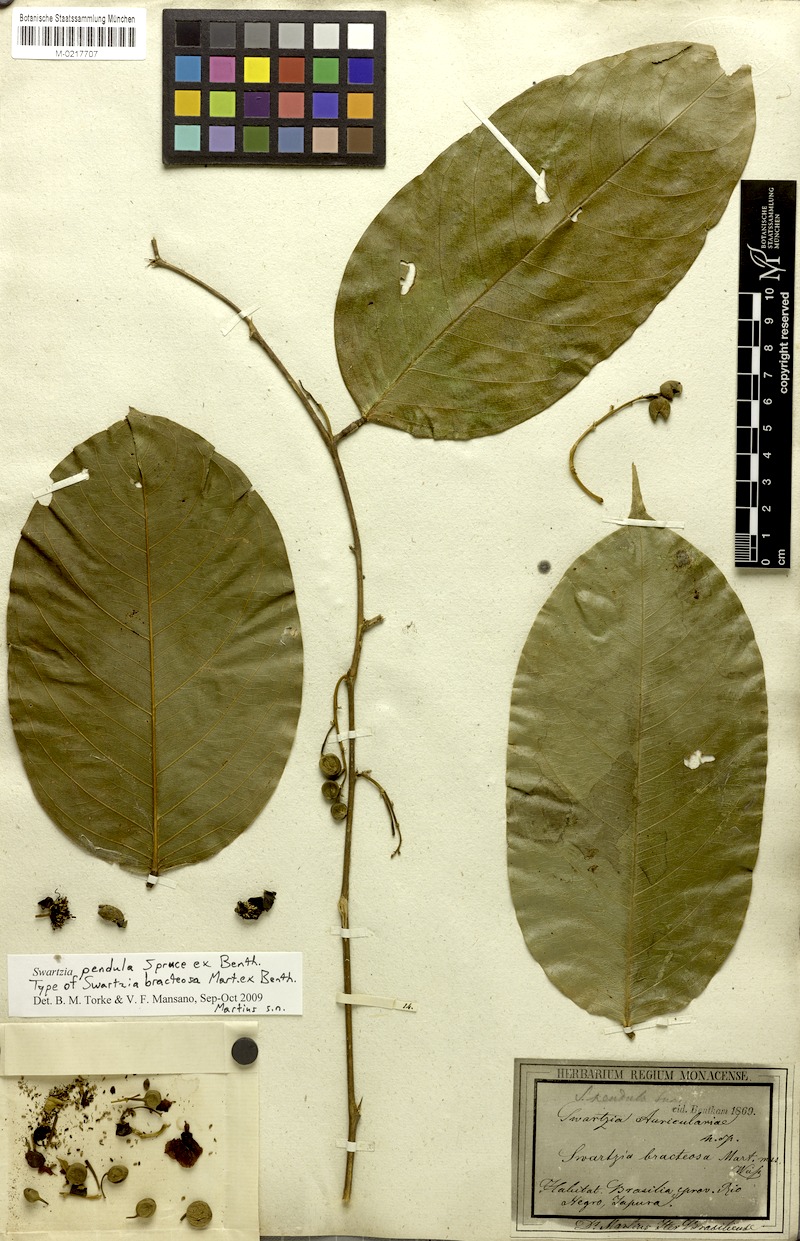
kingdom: Plantae
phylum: Tracheophyta
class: Magnoliopsida
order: Fabales
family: Fabaceae
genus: Swartzia
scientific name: Swartzia pendula
